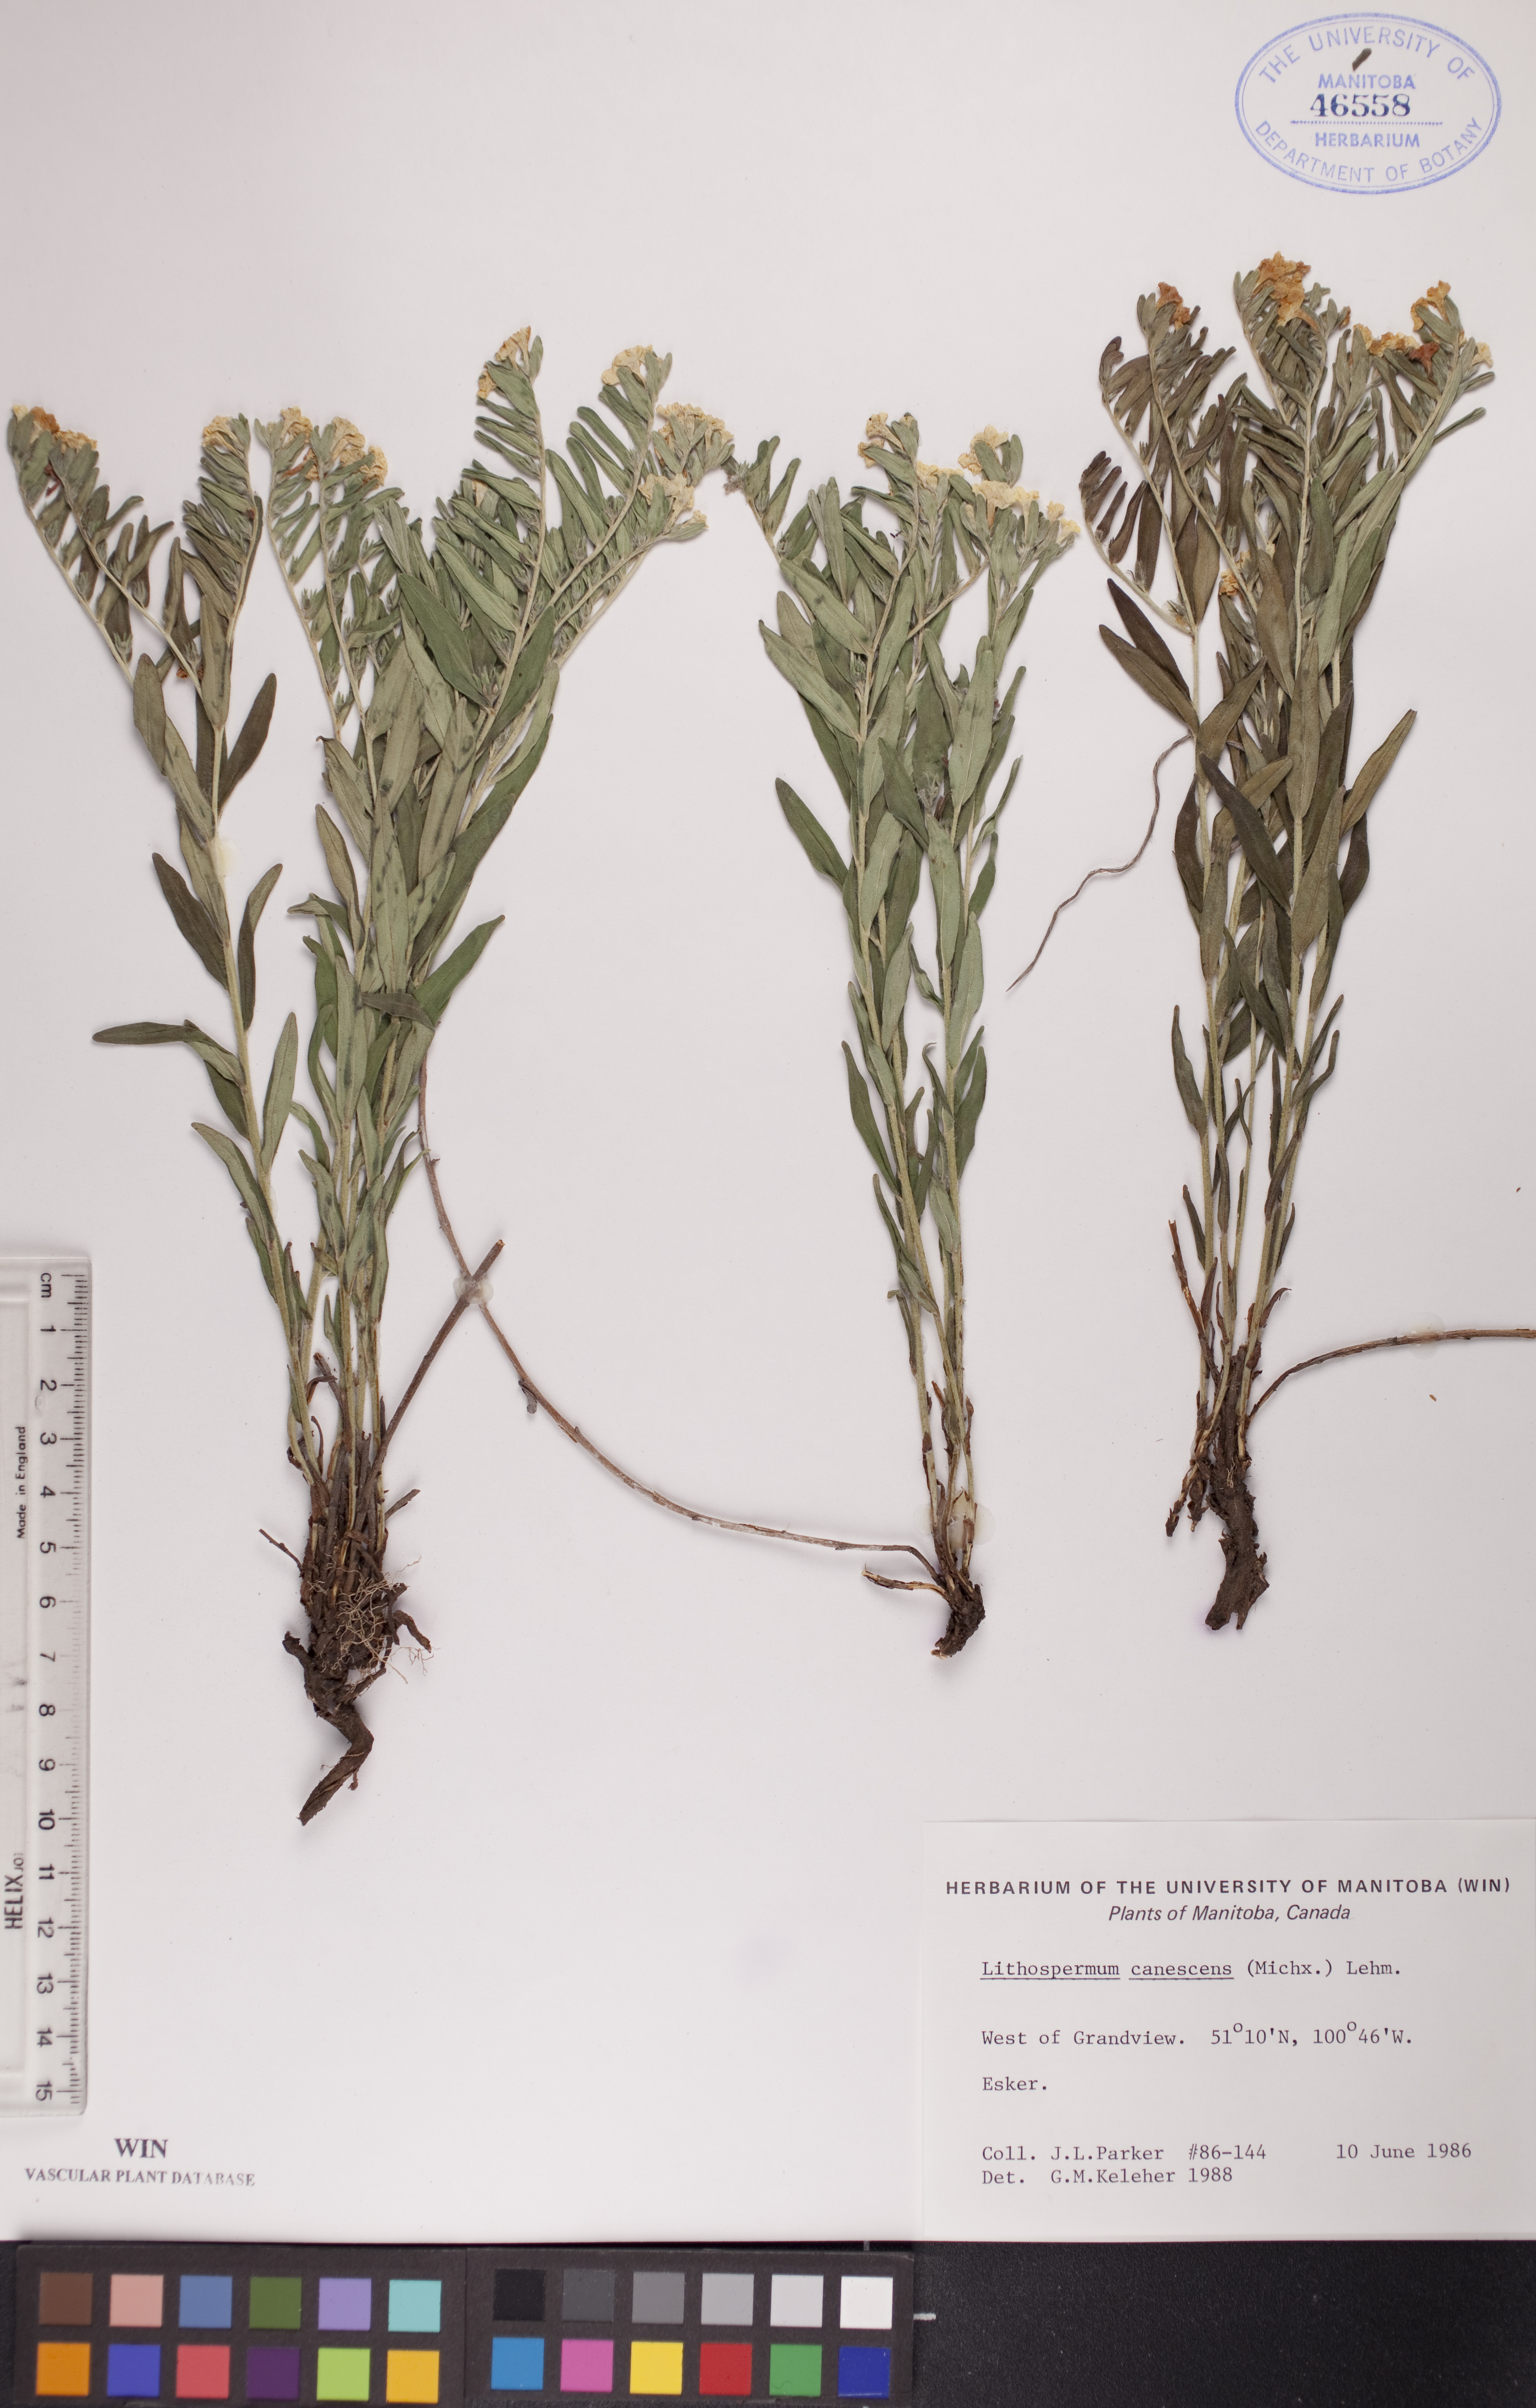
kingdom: Plantae
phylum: Tracheophyta
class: Magnoliopsida
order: Boraginales
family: Boraginaceae
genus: Lithospermum
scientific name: Lithospermum canescens
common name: Hoary puccoon
